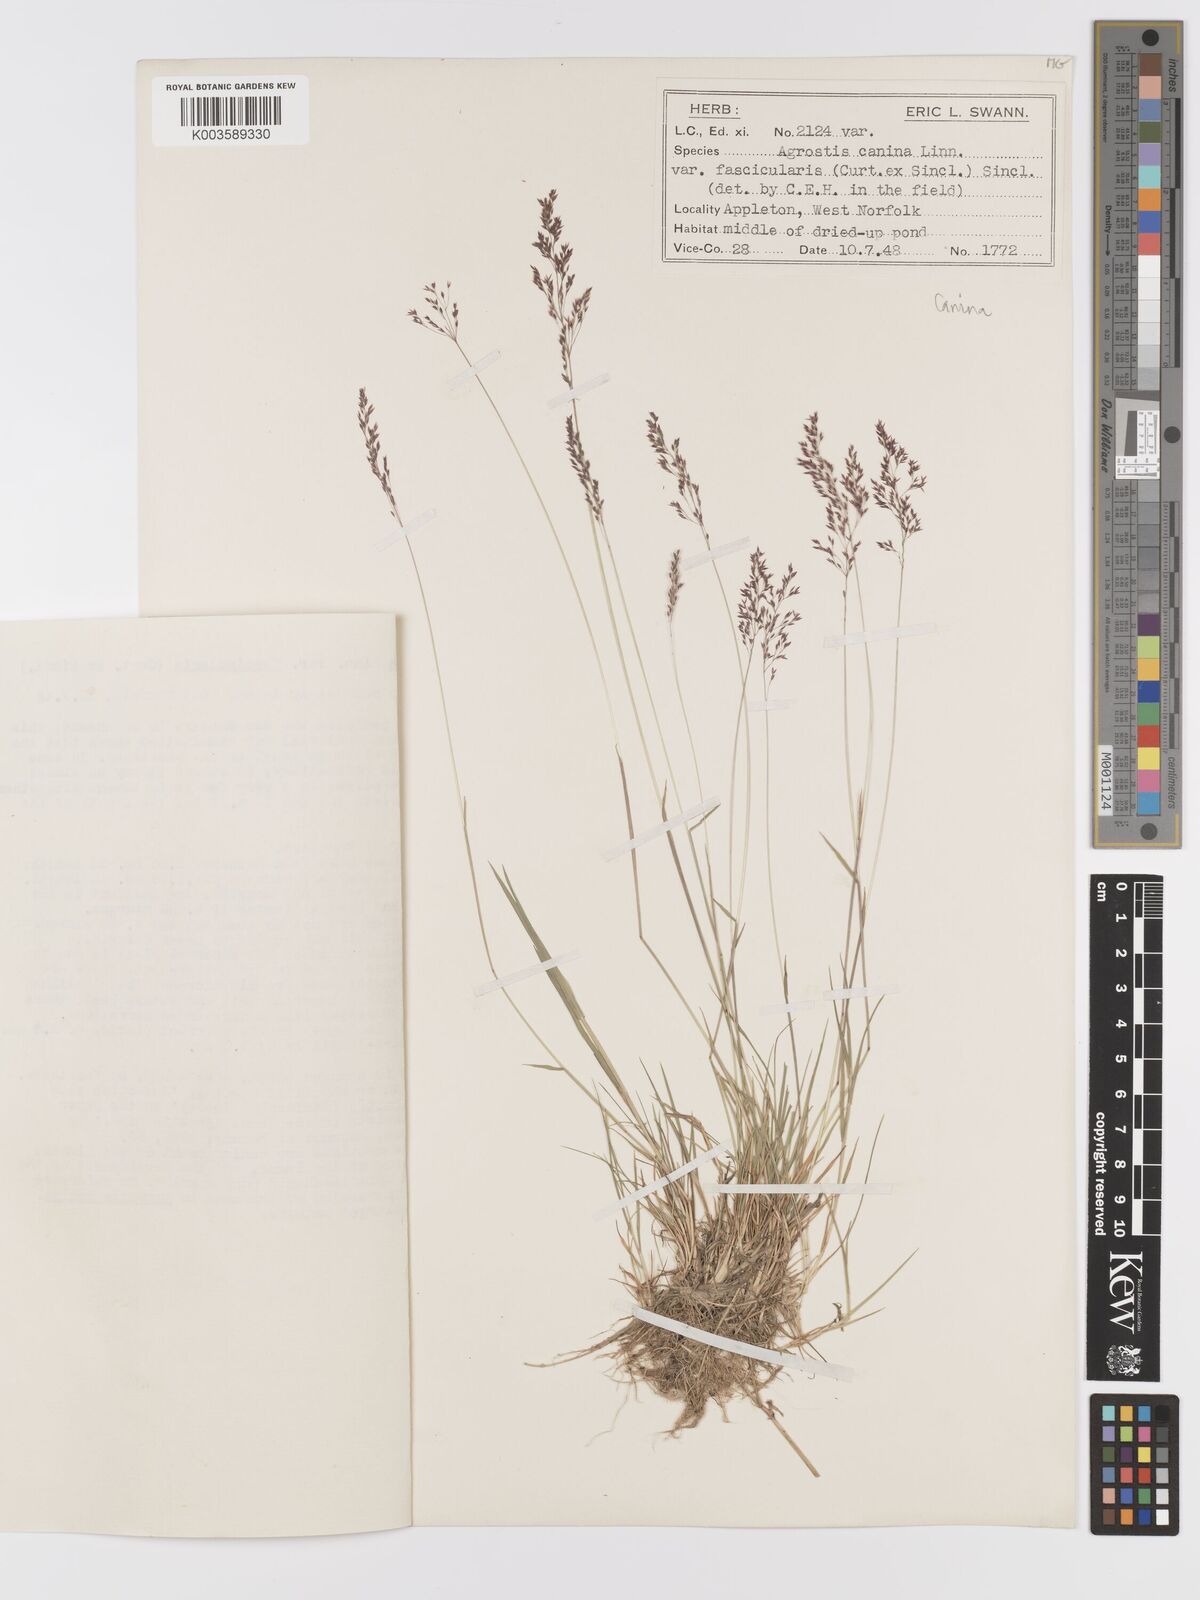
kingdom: Plantae
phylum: Tracheophyta
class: Liliopsida
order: Poales
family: Poaceae
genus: Agrostis
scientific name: Agrostis canina
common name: Velvet bent
